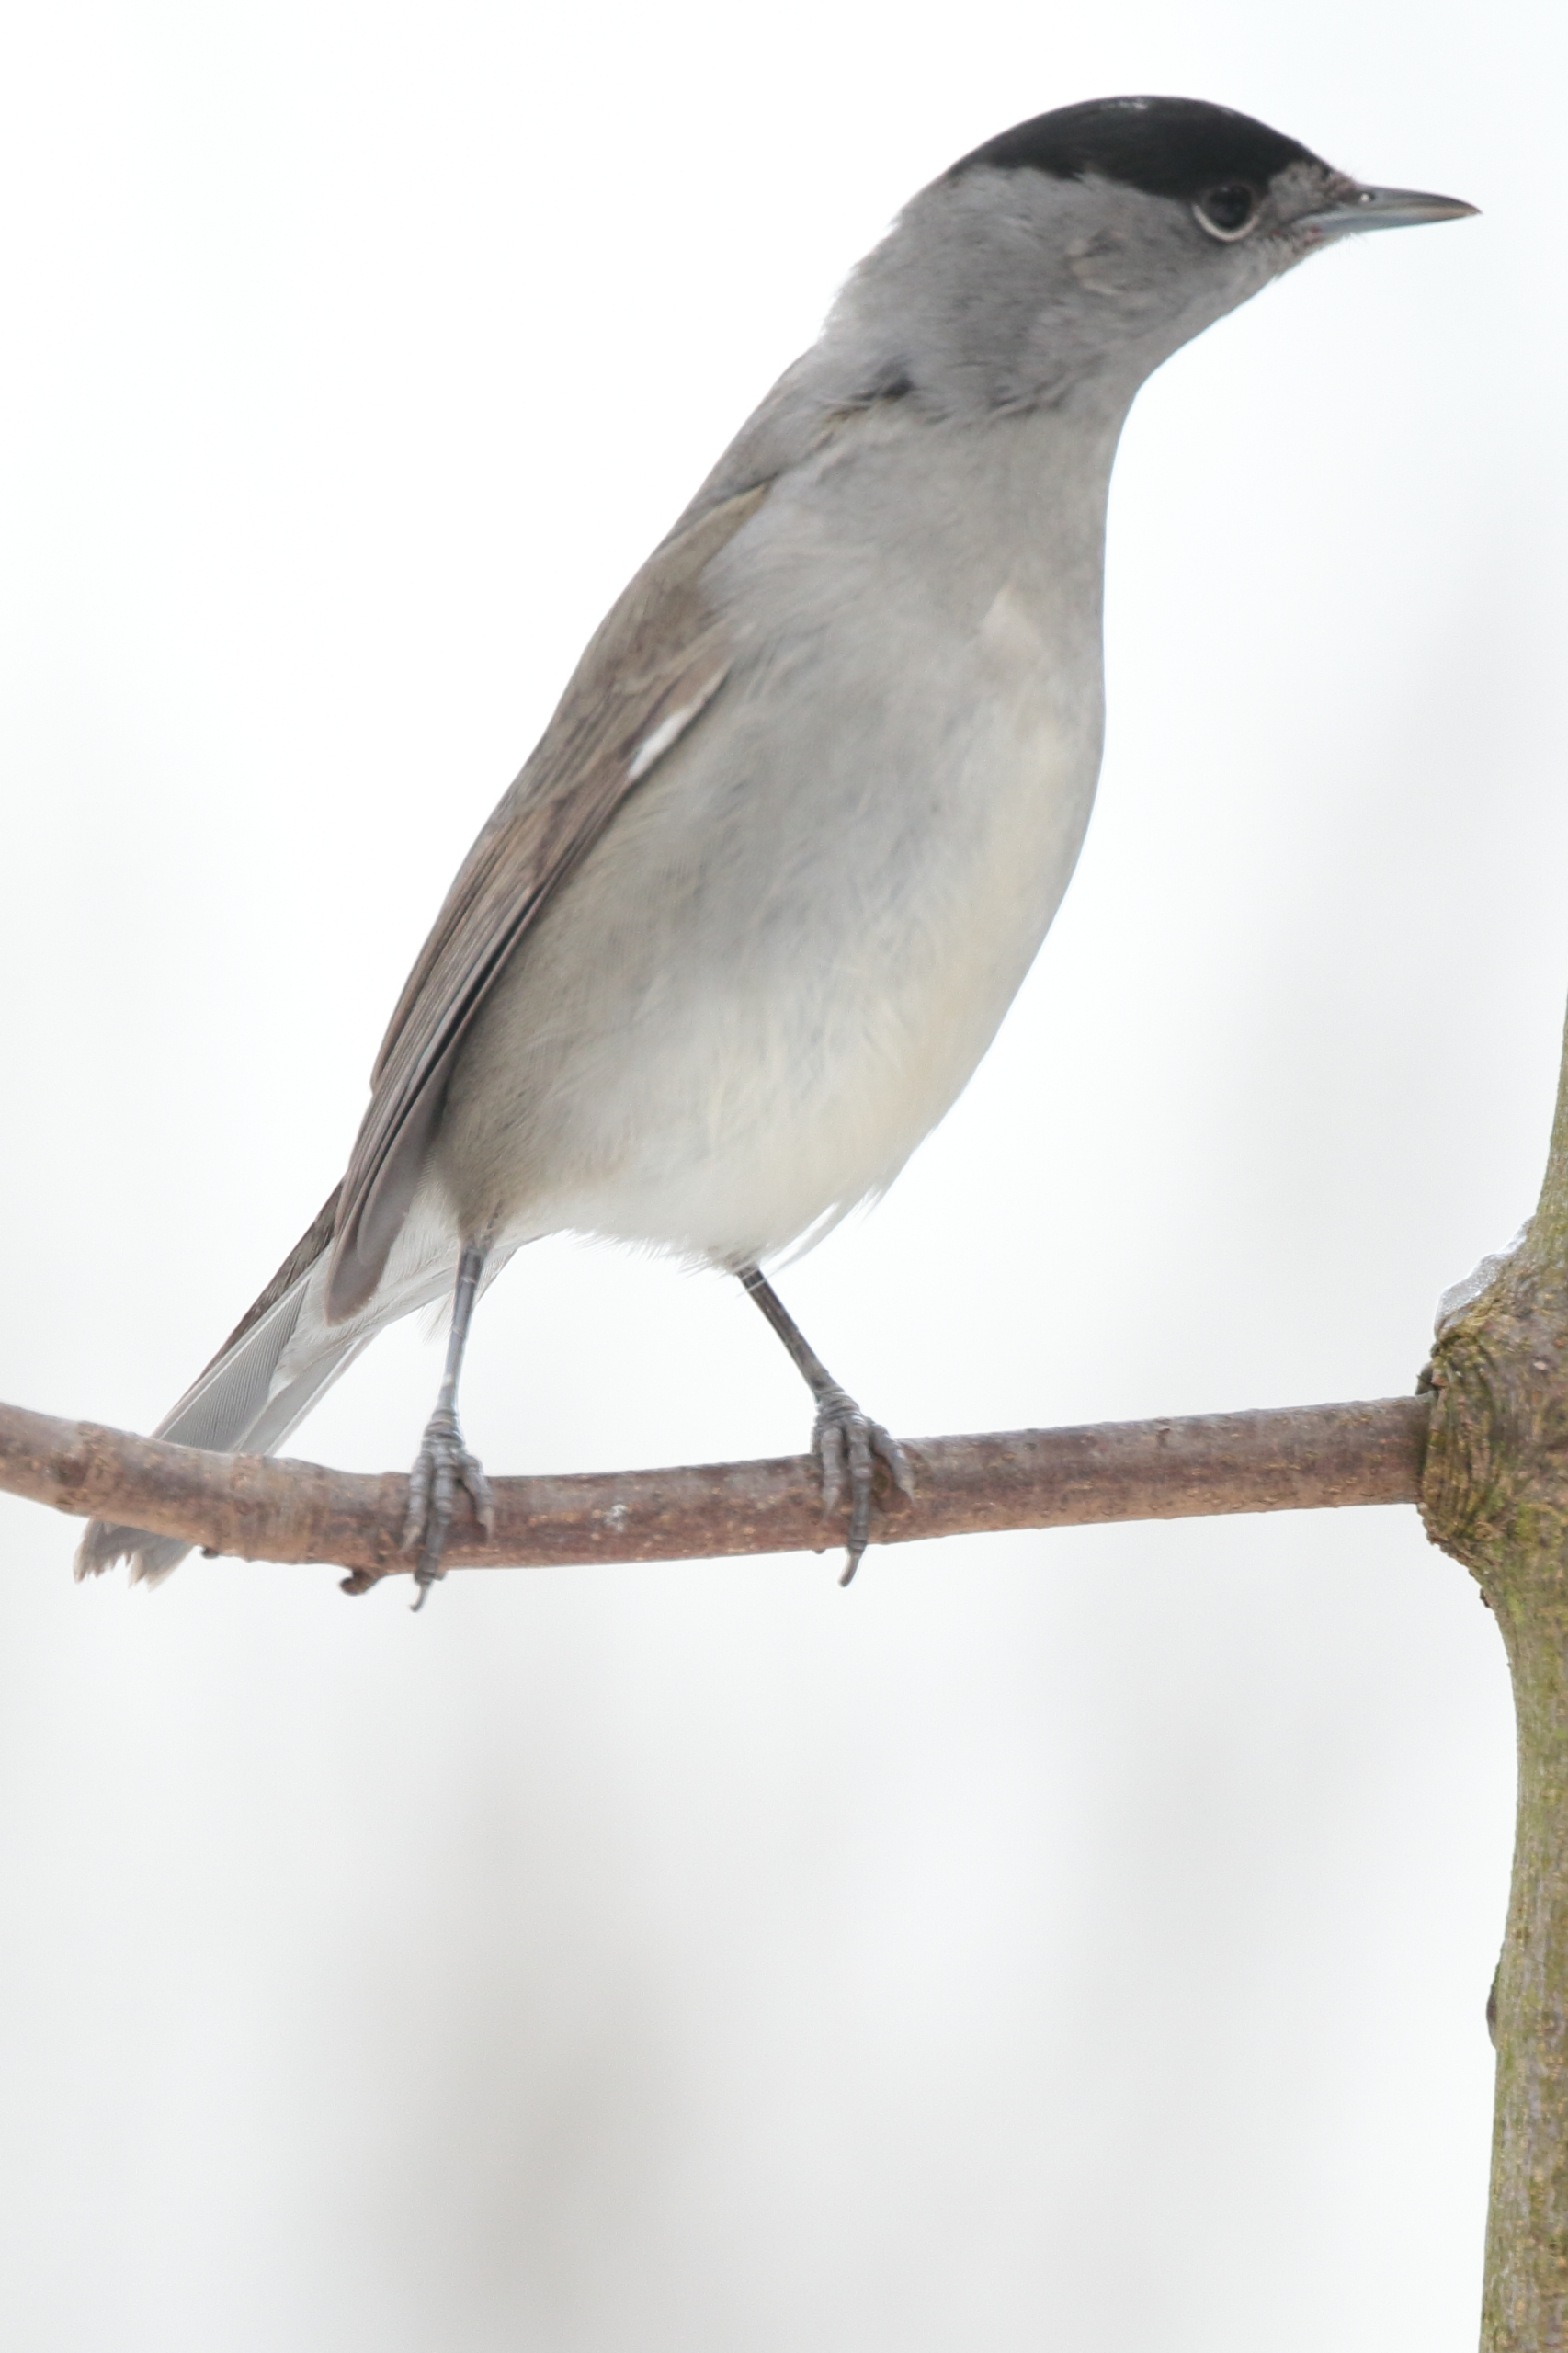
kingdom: Animalia
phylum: Chordata
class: Aves
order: Passeriformes
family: Sylviidae
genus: Sylvia
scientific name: Sylvia atricapilla
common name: Munk
